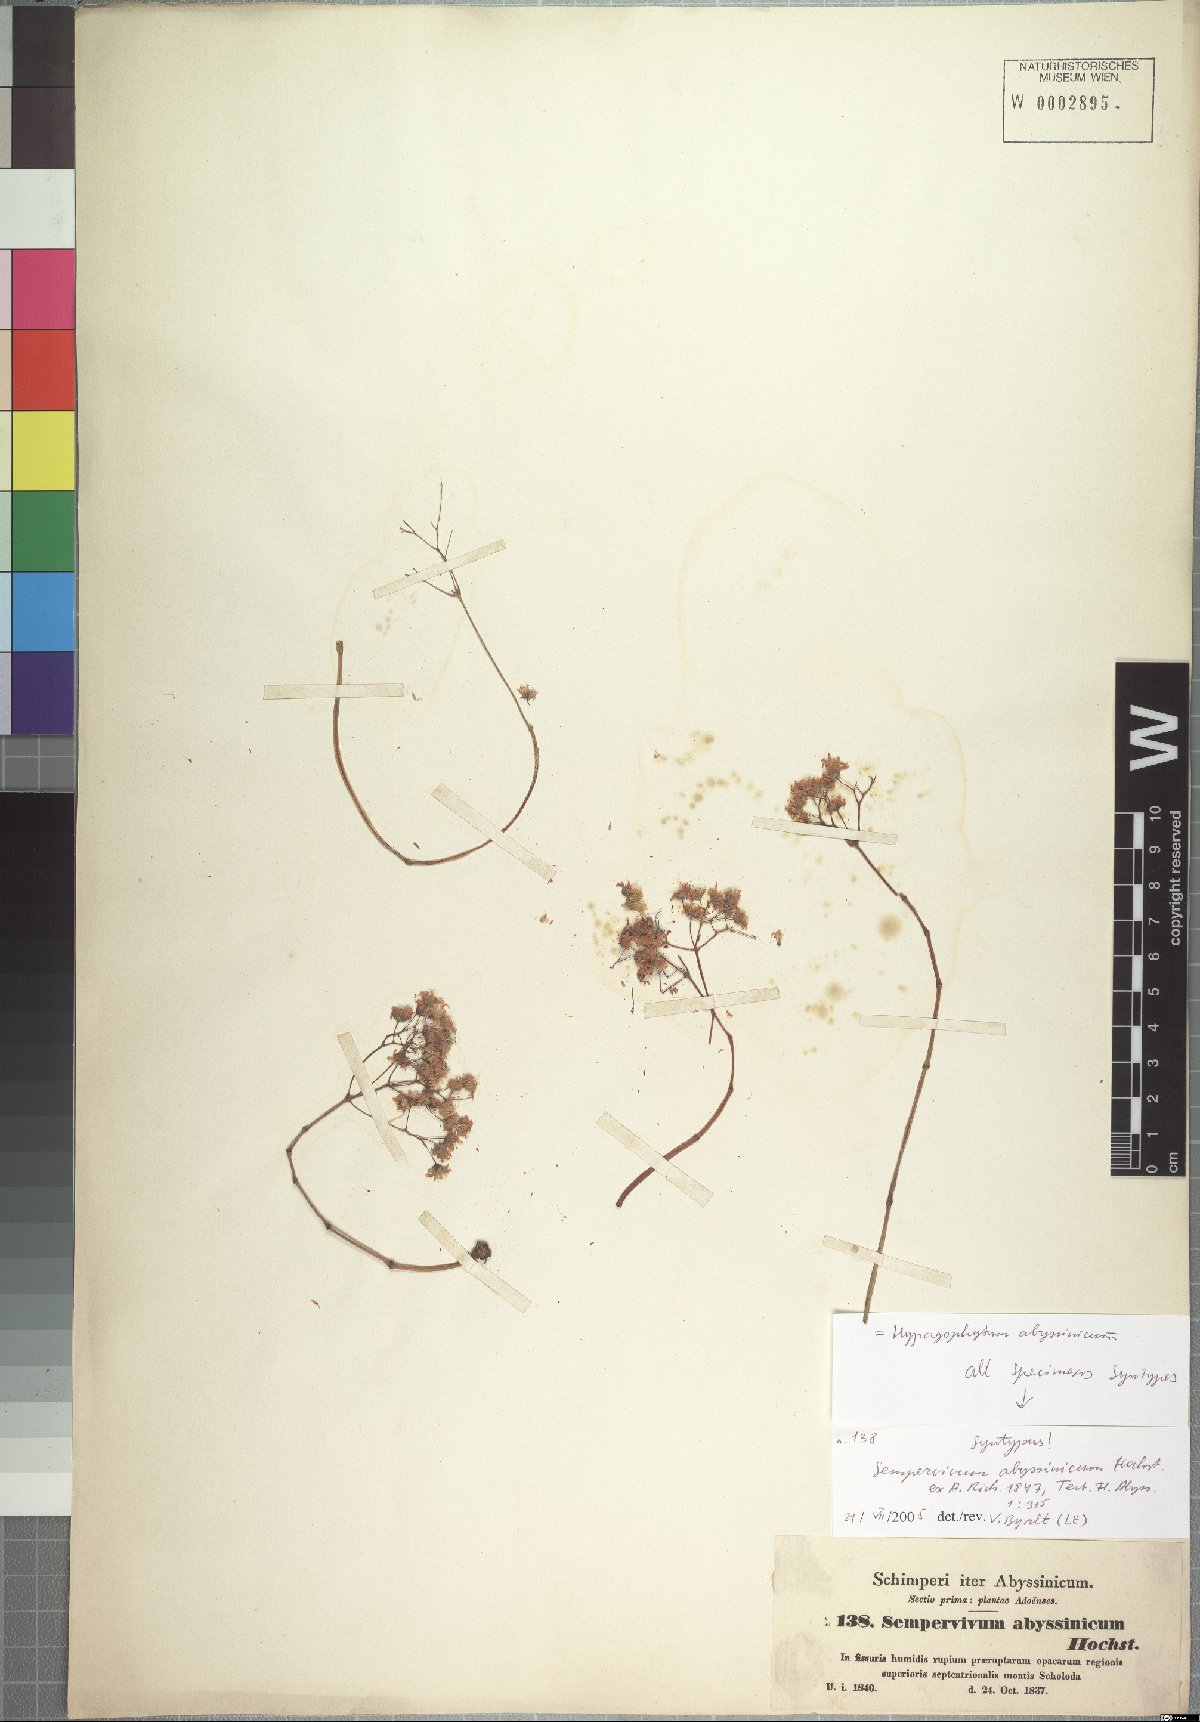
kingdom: Plantae
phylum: Tracheophyta
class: Magnoliopsida
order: Saxifragales
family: Crassulaceae
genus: Hypagophytum
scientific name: Hypagophytum abyssinicum
